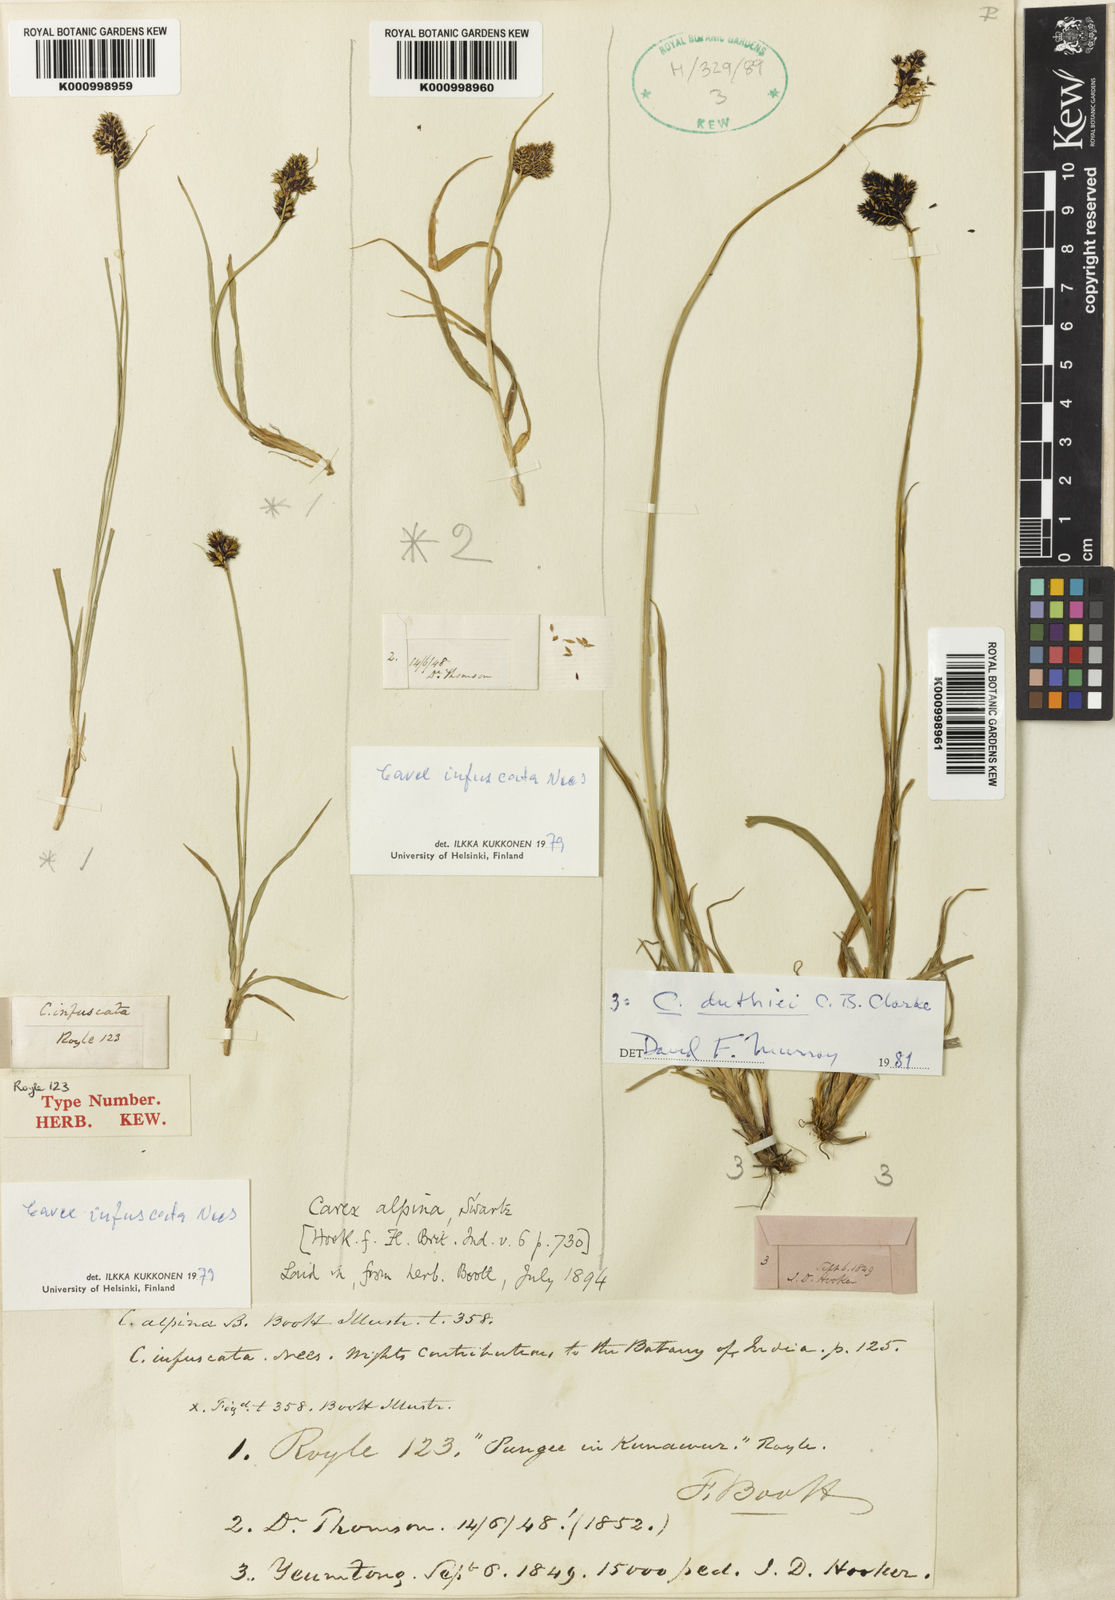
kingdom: Plantae
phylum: Tracheophyta
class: Liliopsida
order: Poales
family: Cyperaceae
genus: Carex
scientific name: Carex norvegica
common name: Close-headed alpine-sedge
